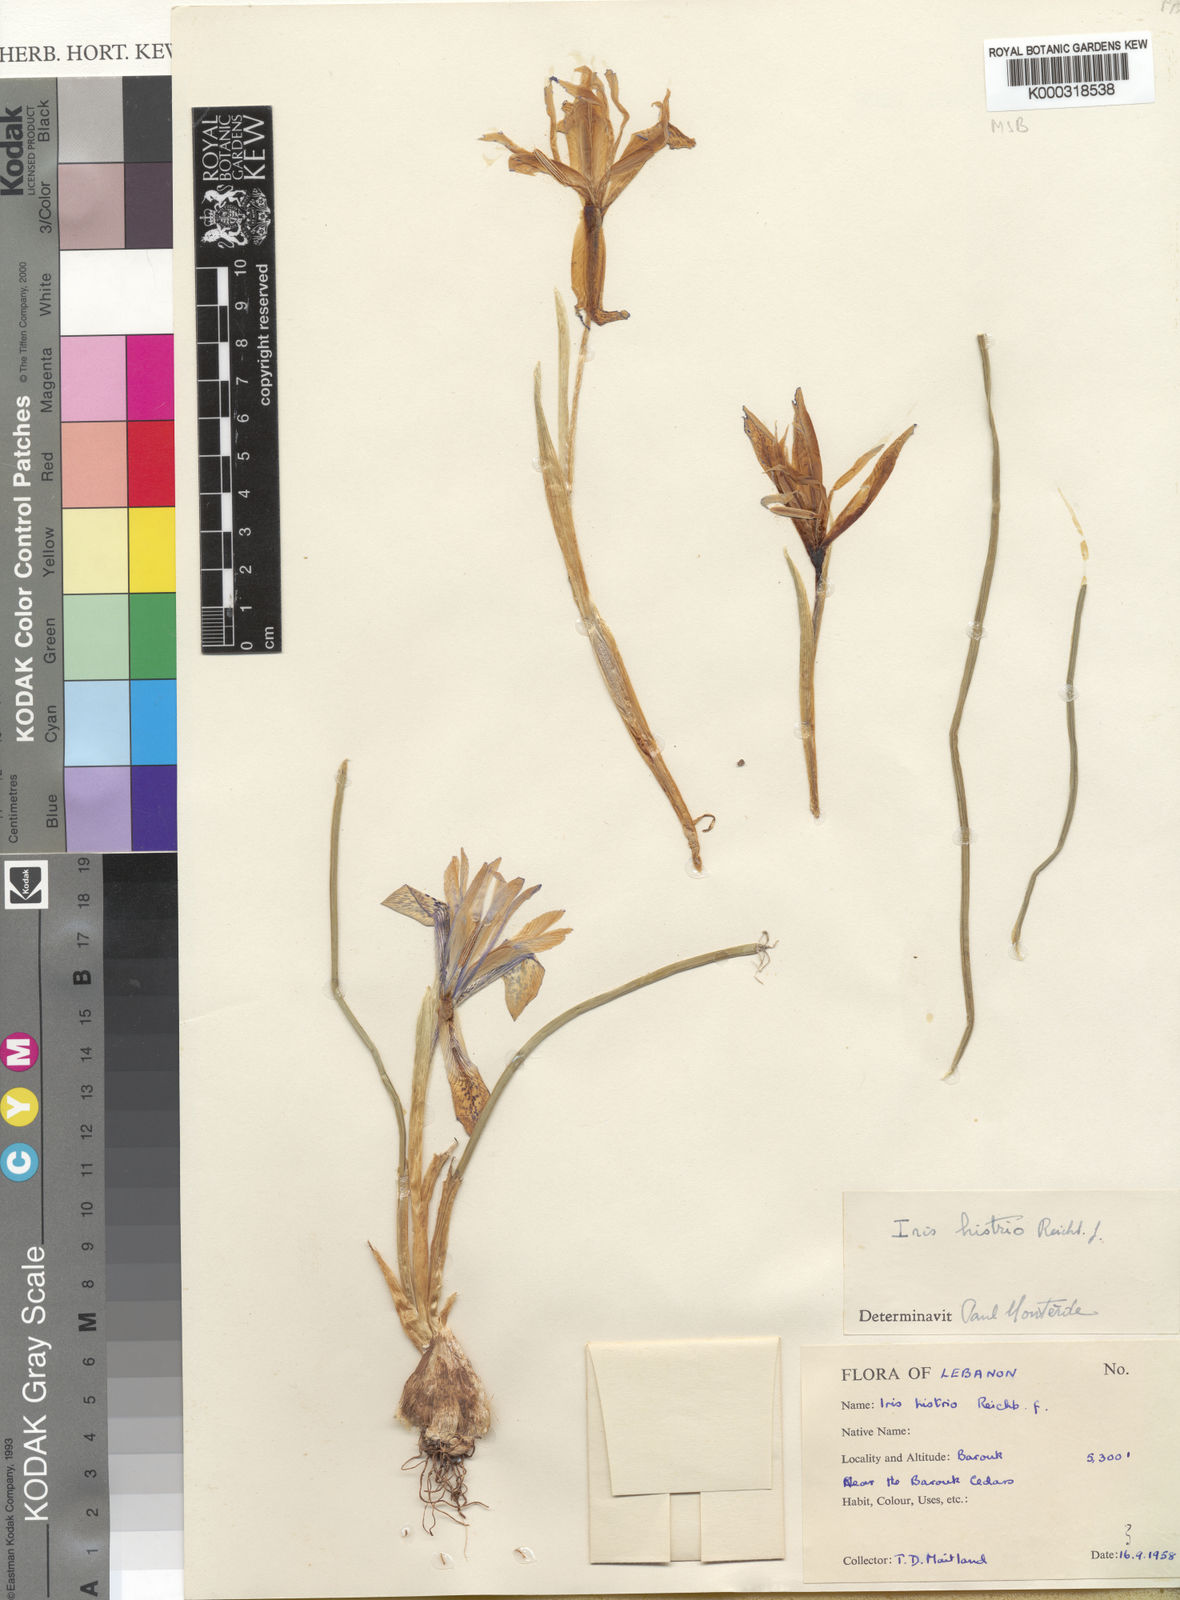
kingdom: Plantae
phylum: Tracheophyta
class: Liliopsida
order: Asparagales
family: Iridaceae
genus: Iris
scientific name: Iris histrio
